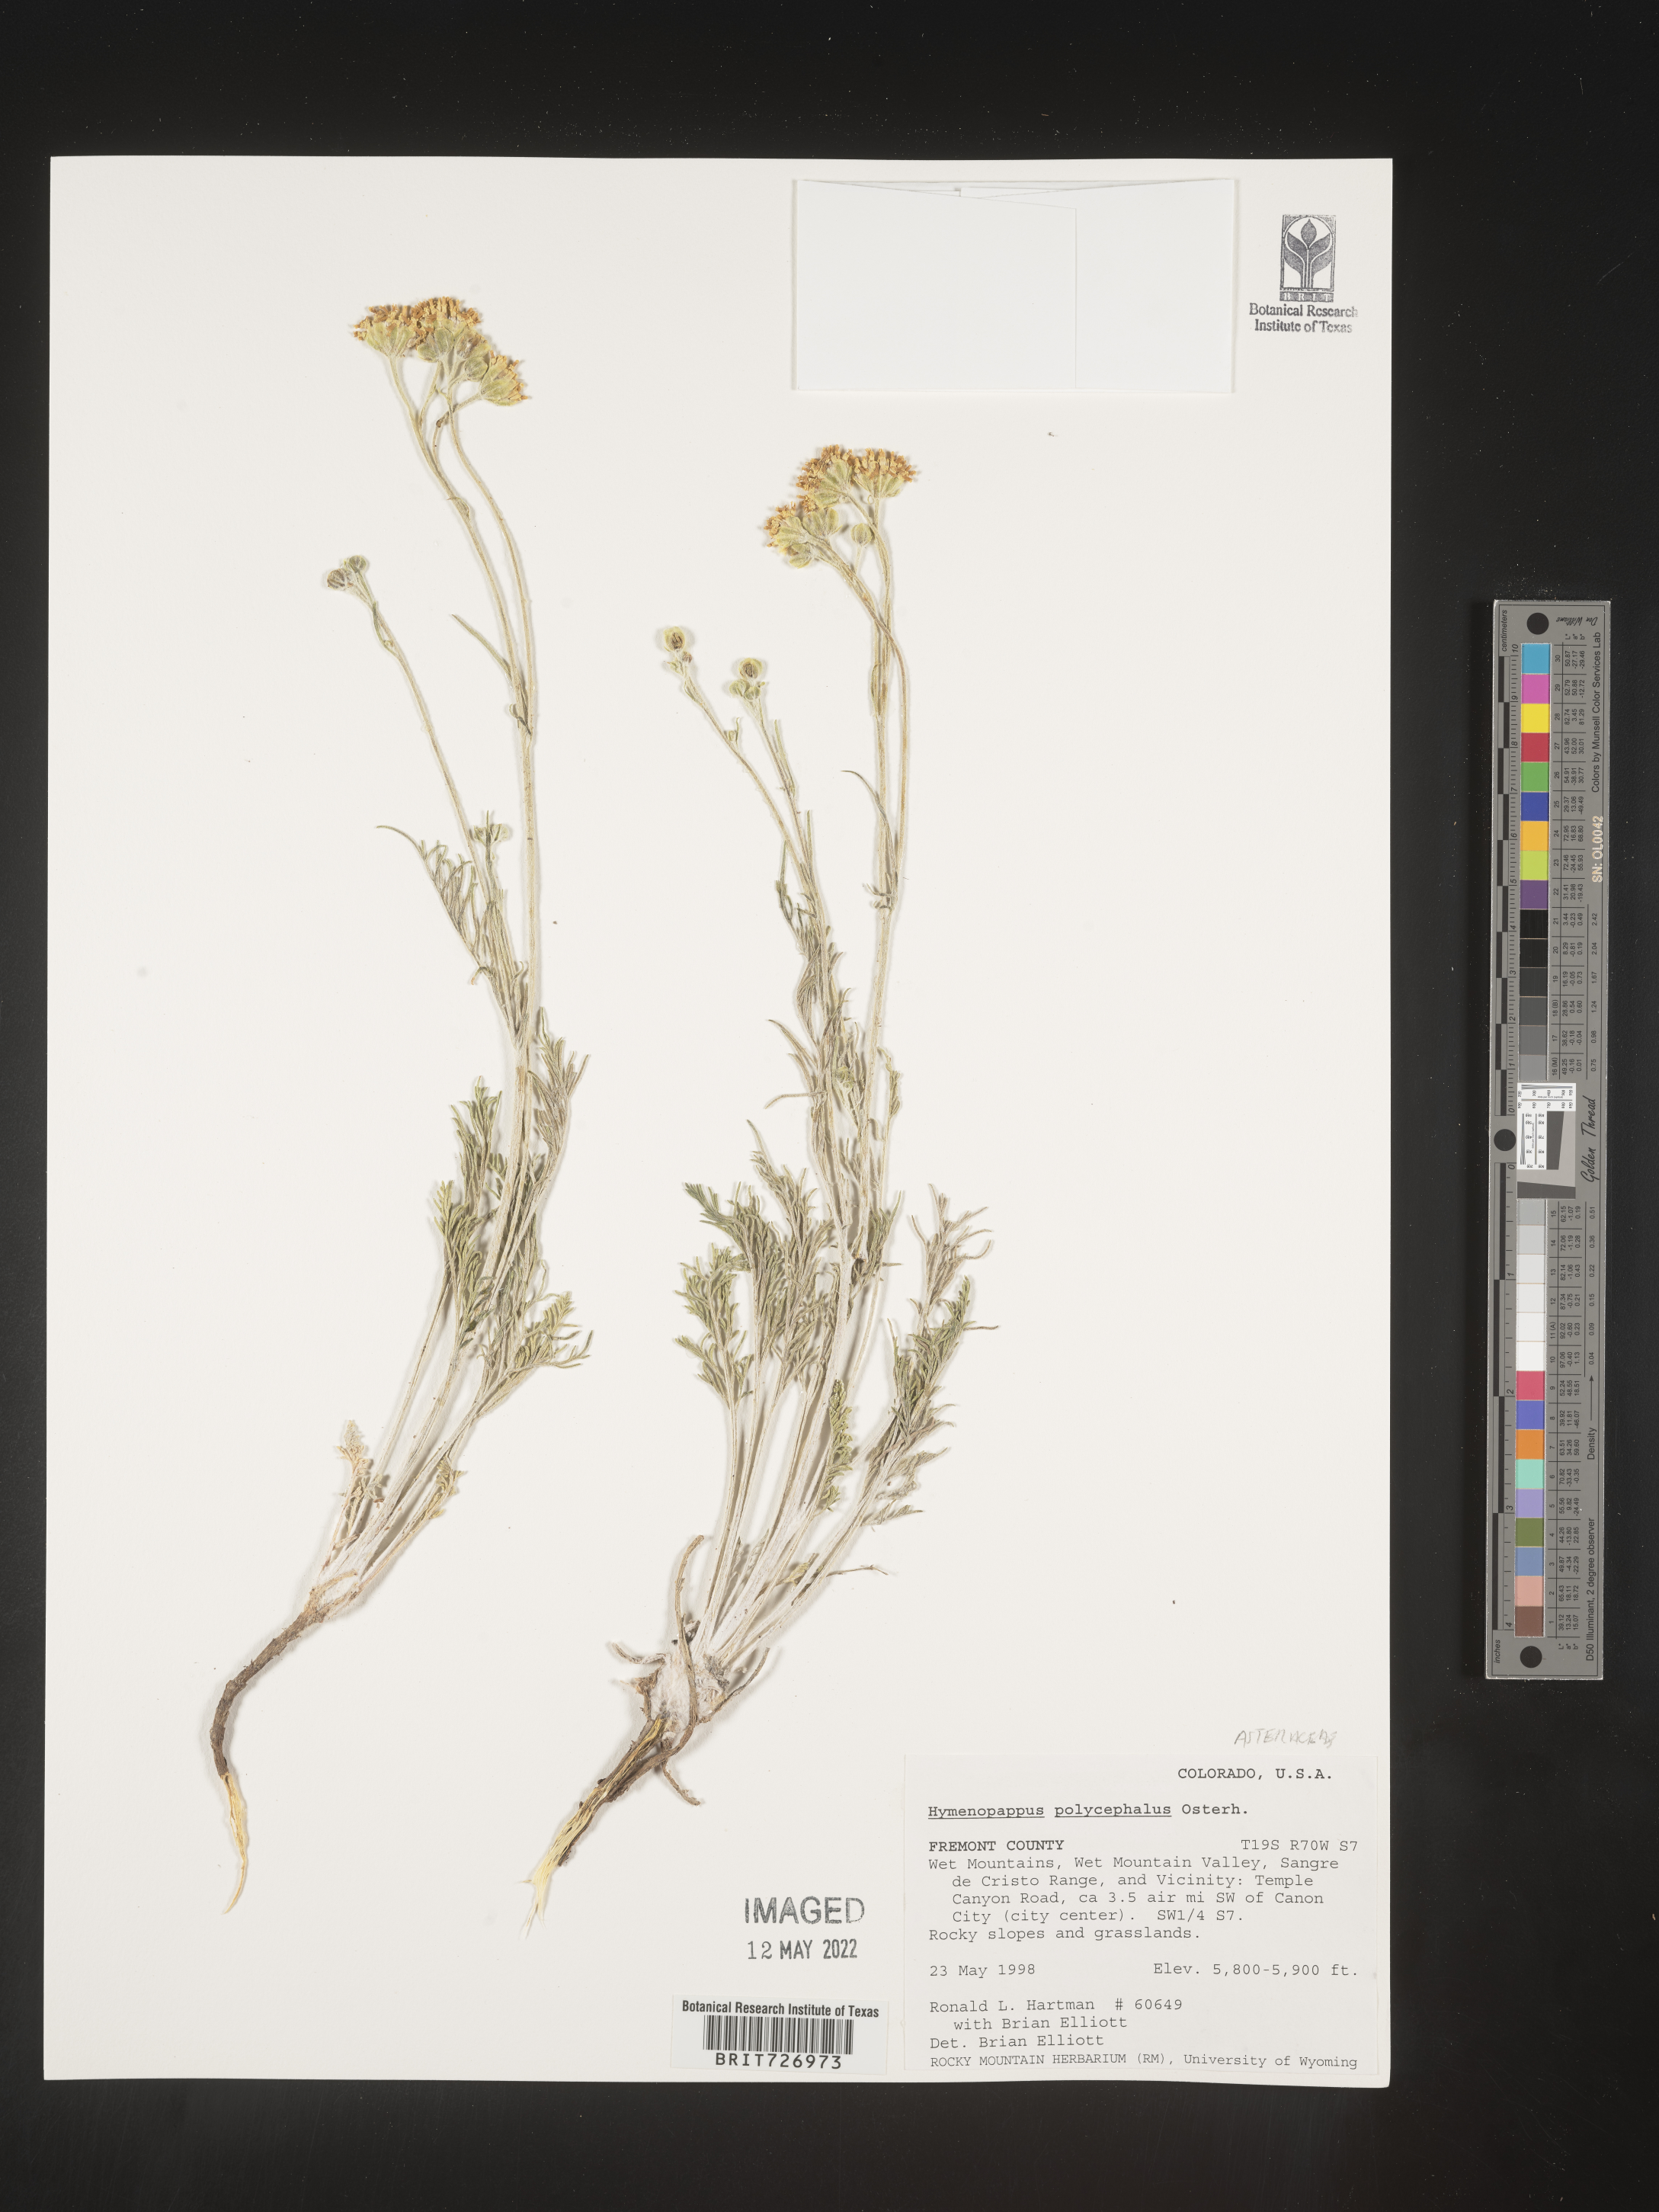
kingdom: Plantae
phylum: Tracheophyta
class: Magnoliopsida
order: Asterales
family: Asteraceae
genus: Hymenopappus
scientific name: Hymenopappus filifolius
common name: Columbia cutleaf
